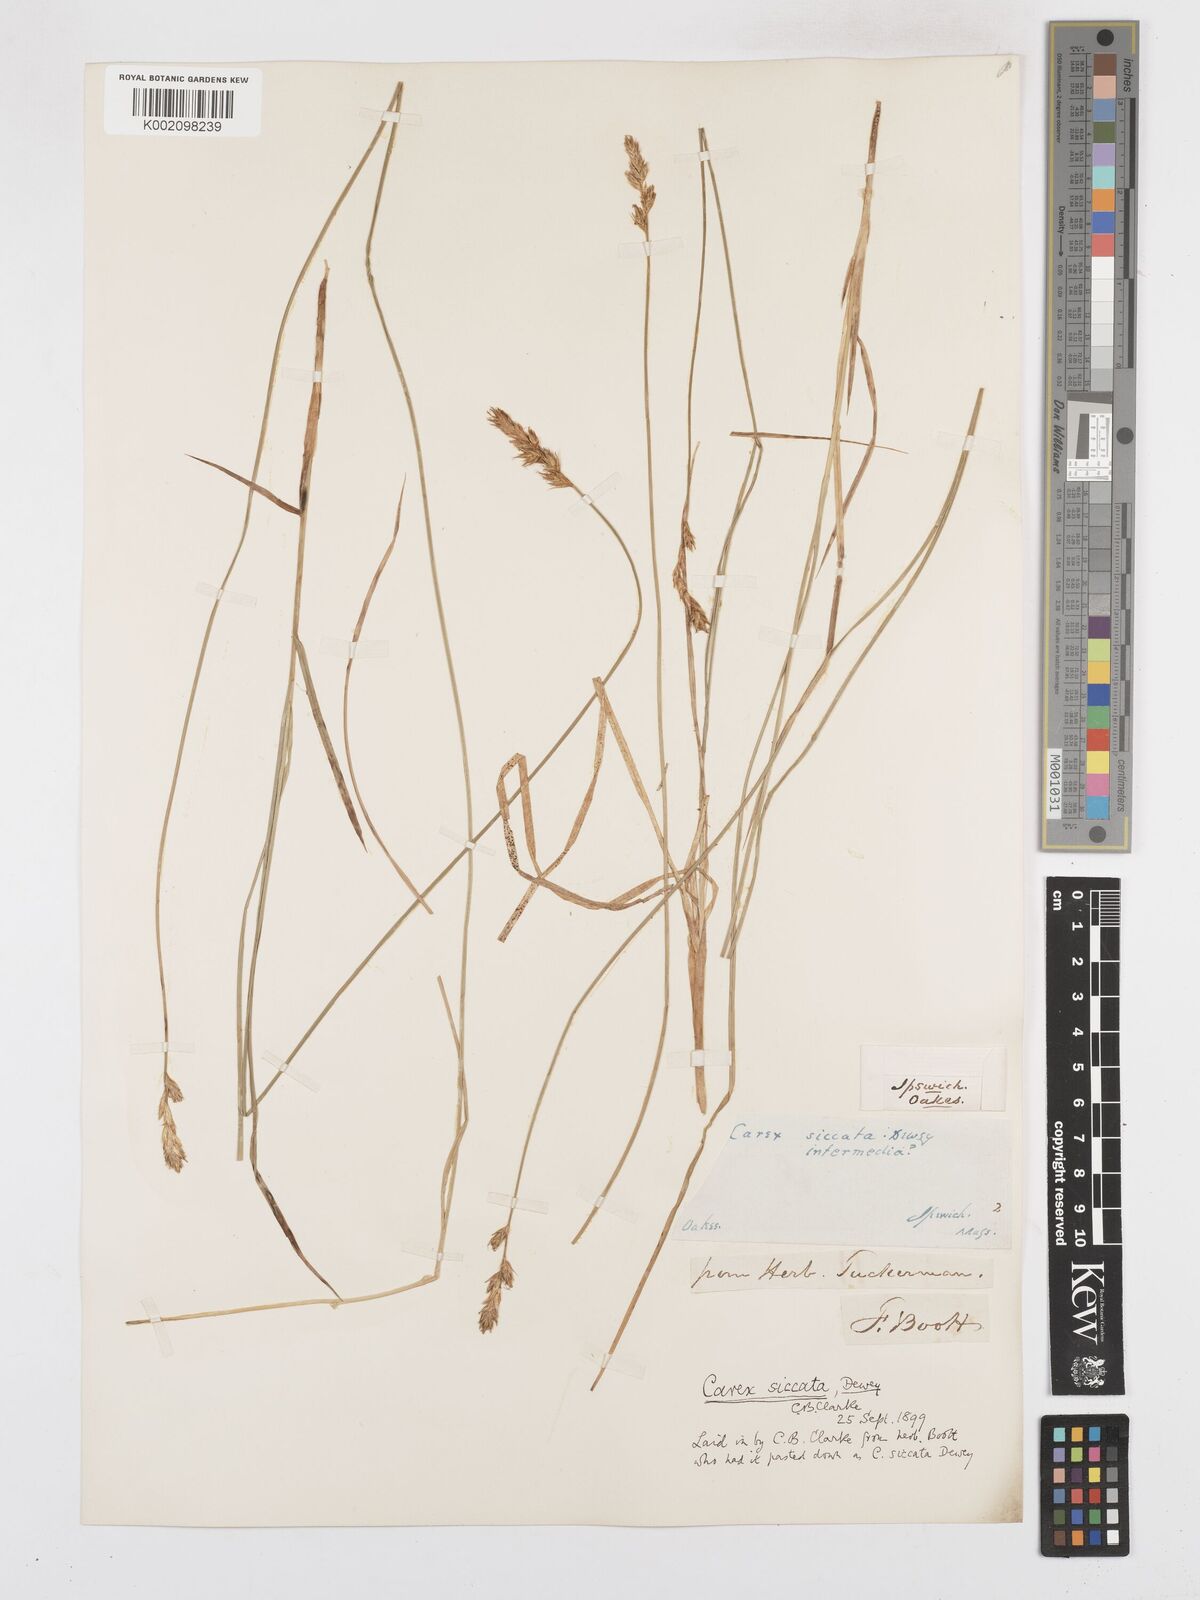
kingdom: Plantae
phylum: Tracheophyta
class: Liliopsida
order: Poales
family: Cyperaceae
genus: Carex
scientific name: Carex foenea
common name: Bronze sedge
